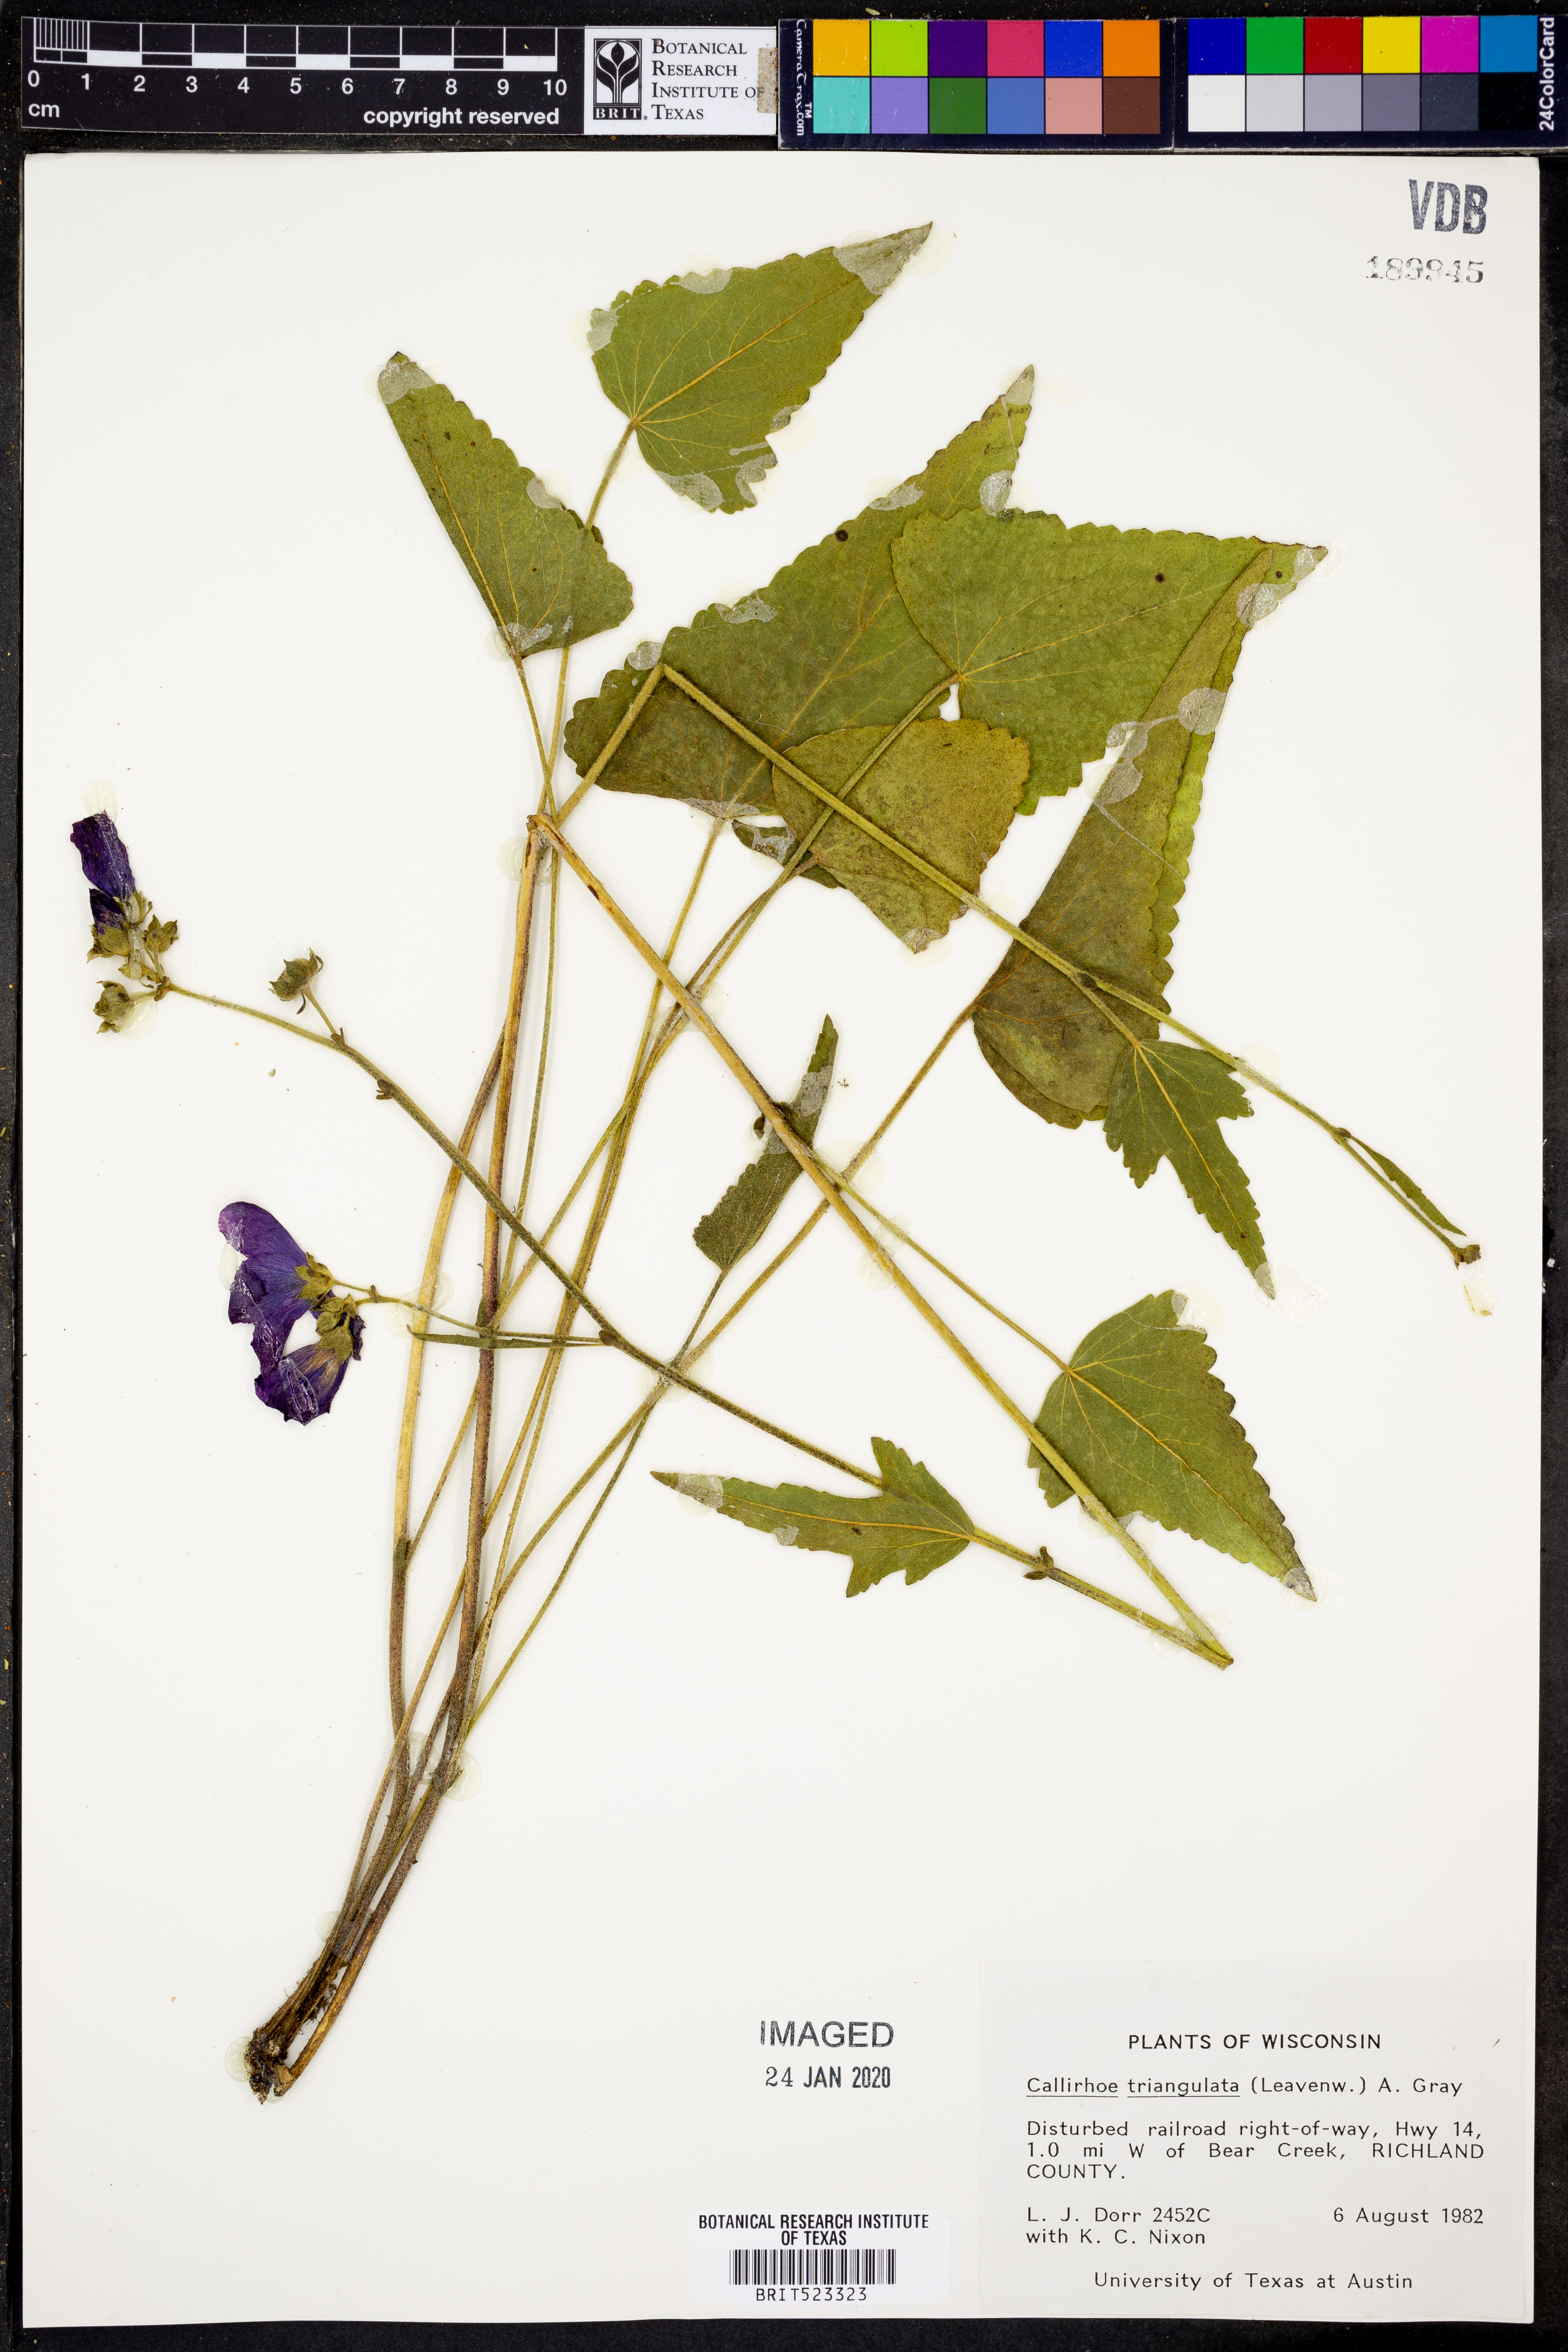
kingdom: Plantae
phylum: Tracheophyta
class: Magnoliopsida
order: Malvales
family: Malvaceae
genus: Callirhoe
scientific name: Callirhoe triangulata
